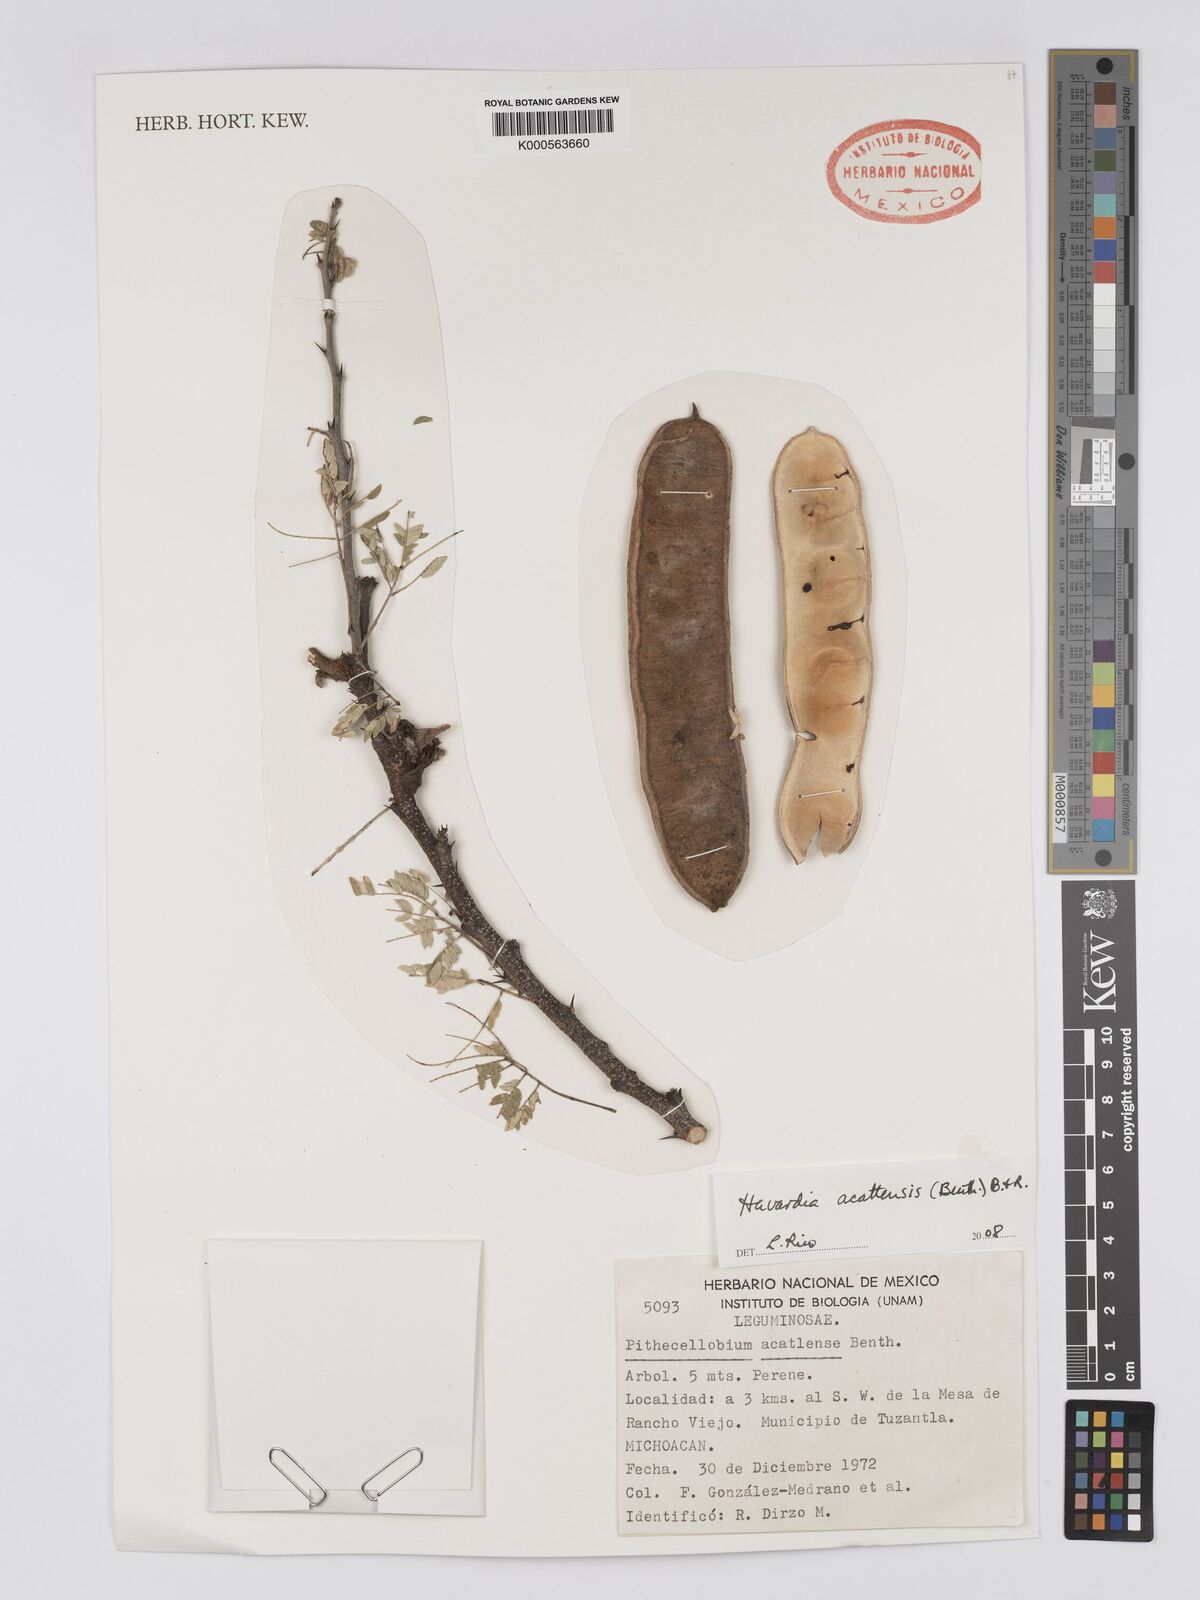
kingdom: Plantae
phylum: Tracheophyta
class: Magnoliopsida
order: Fabales
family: Fabaceae
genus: Havardia
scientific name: Havardia acatlensis
